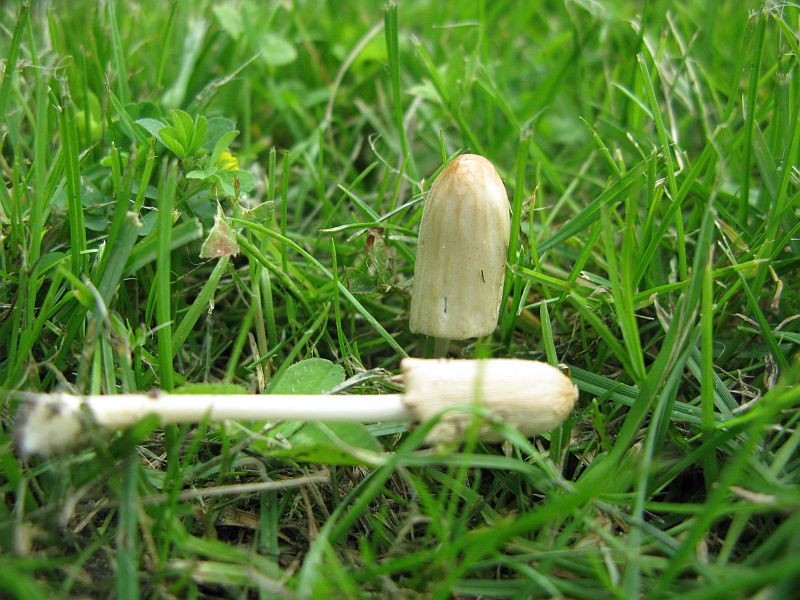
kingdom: Fungi
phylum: Basidiomycota
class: Agaricomycetes
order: Agaricales
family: Bolbitiaceae
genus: Conocybe
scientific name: Conocybe apala
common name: mælkehvid keglehat
